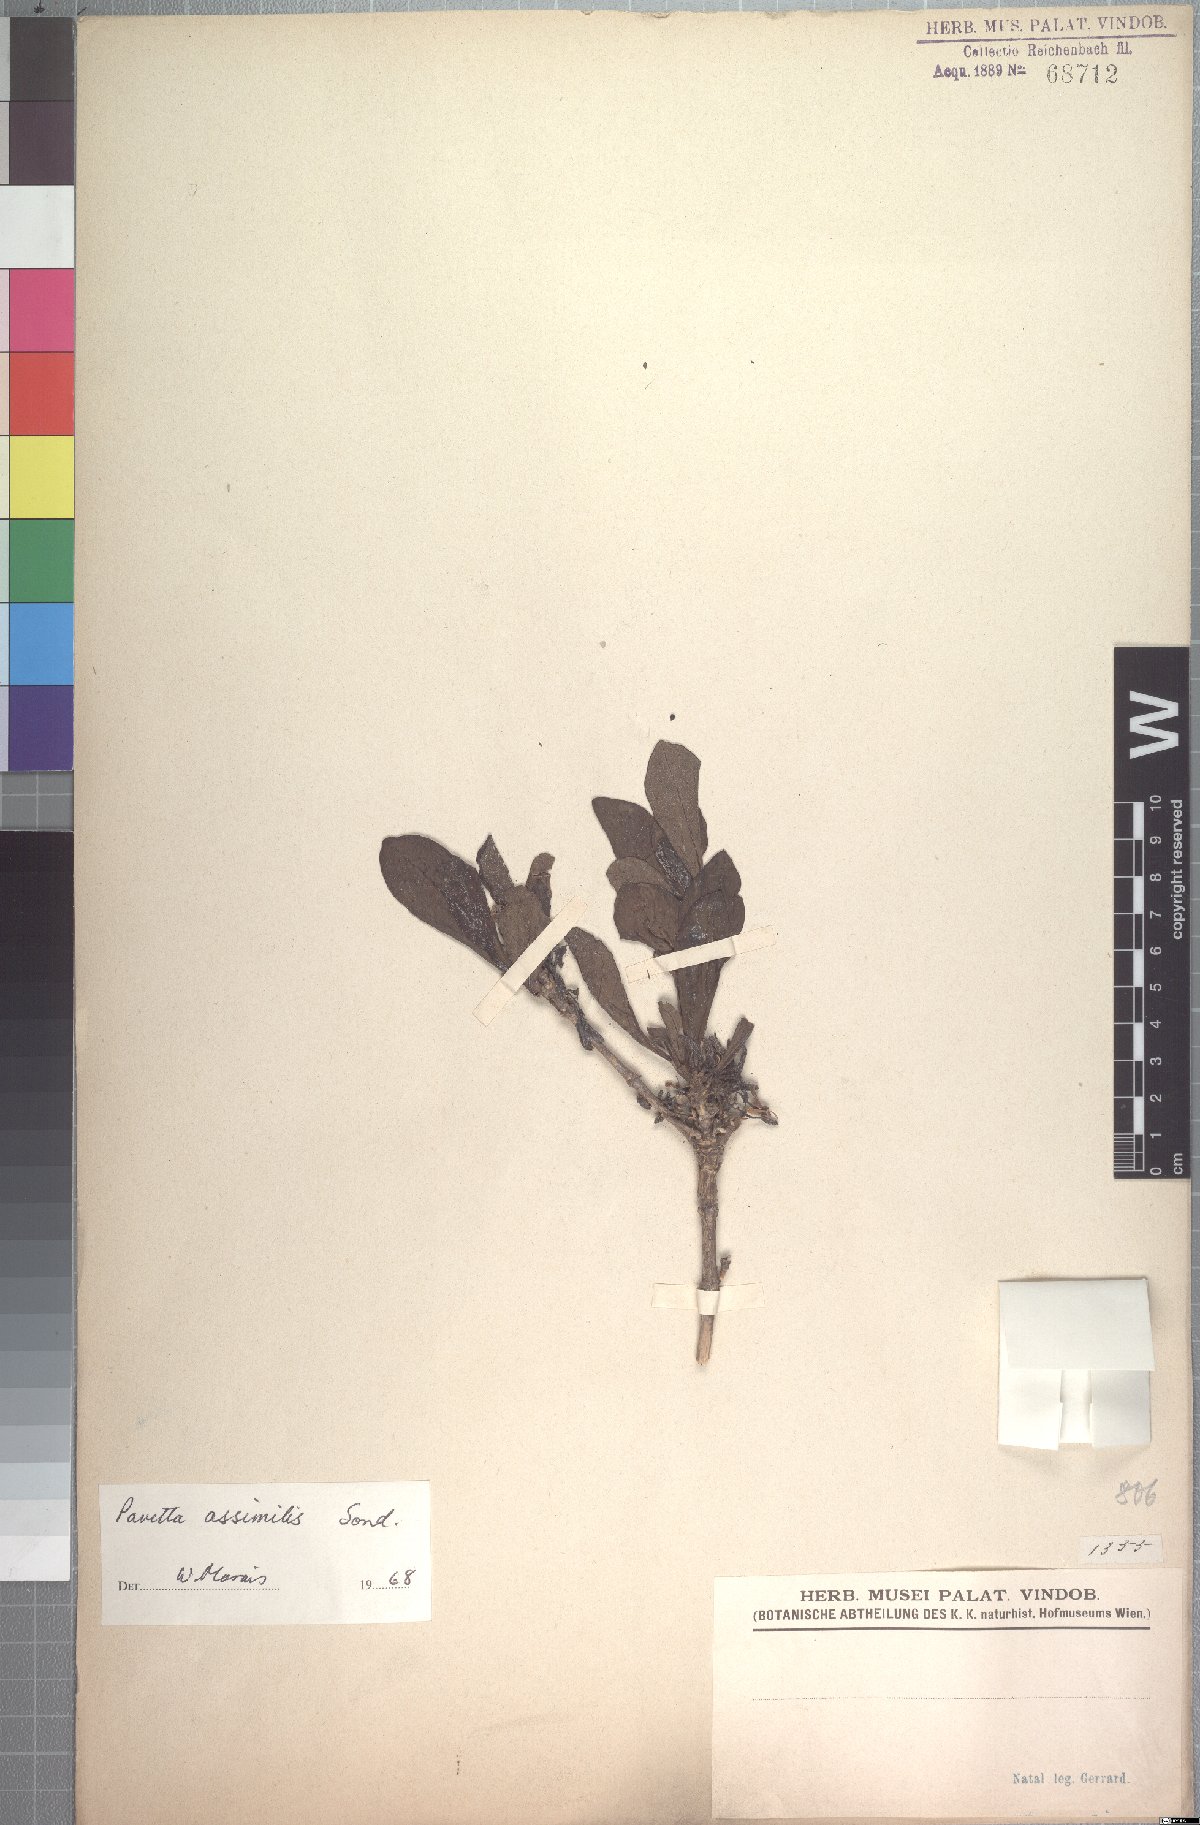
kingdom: Plantae
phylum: Tracheophyta
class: Magnoliopsida
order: Gentianales
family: Rubiaceae
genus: Pavetta
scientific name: Pavetta gardeniifolia
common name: Common brides-bush
